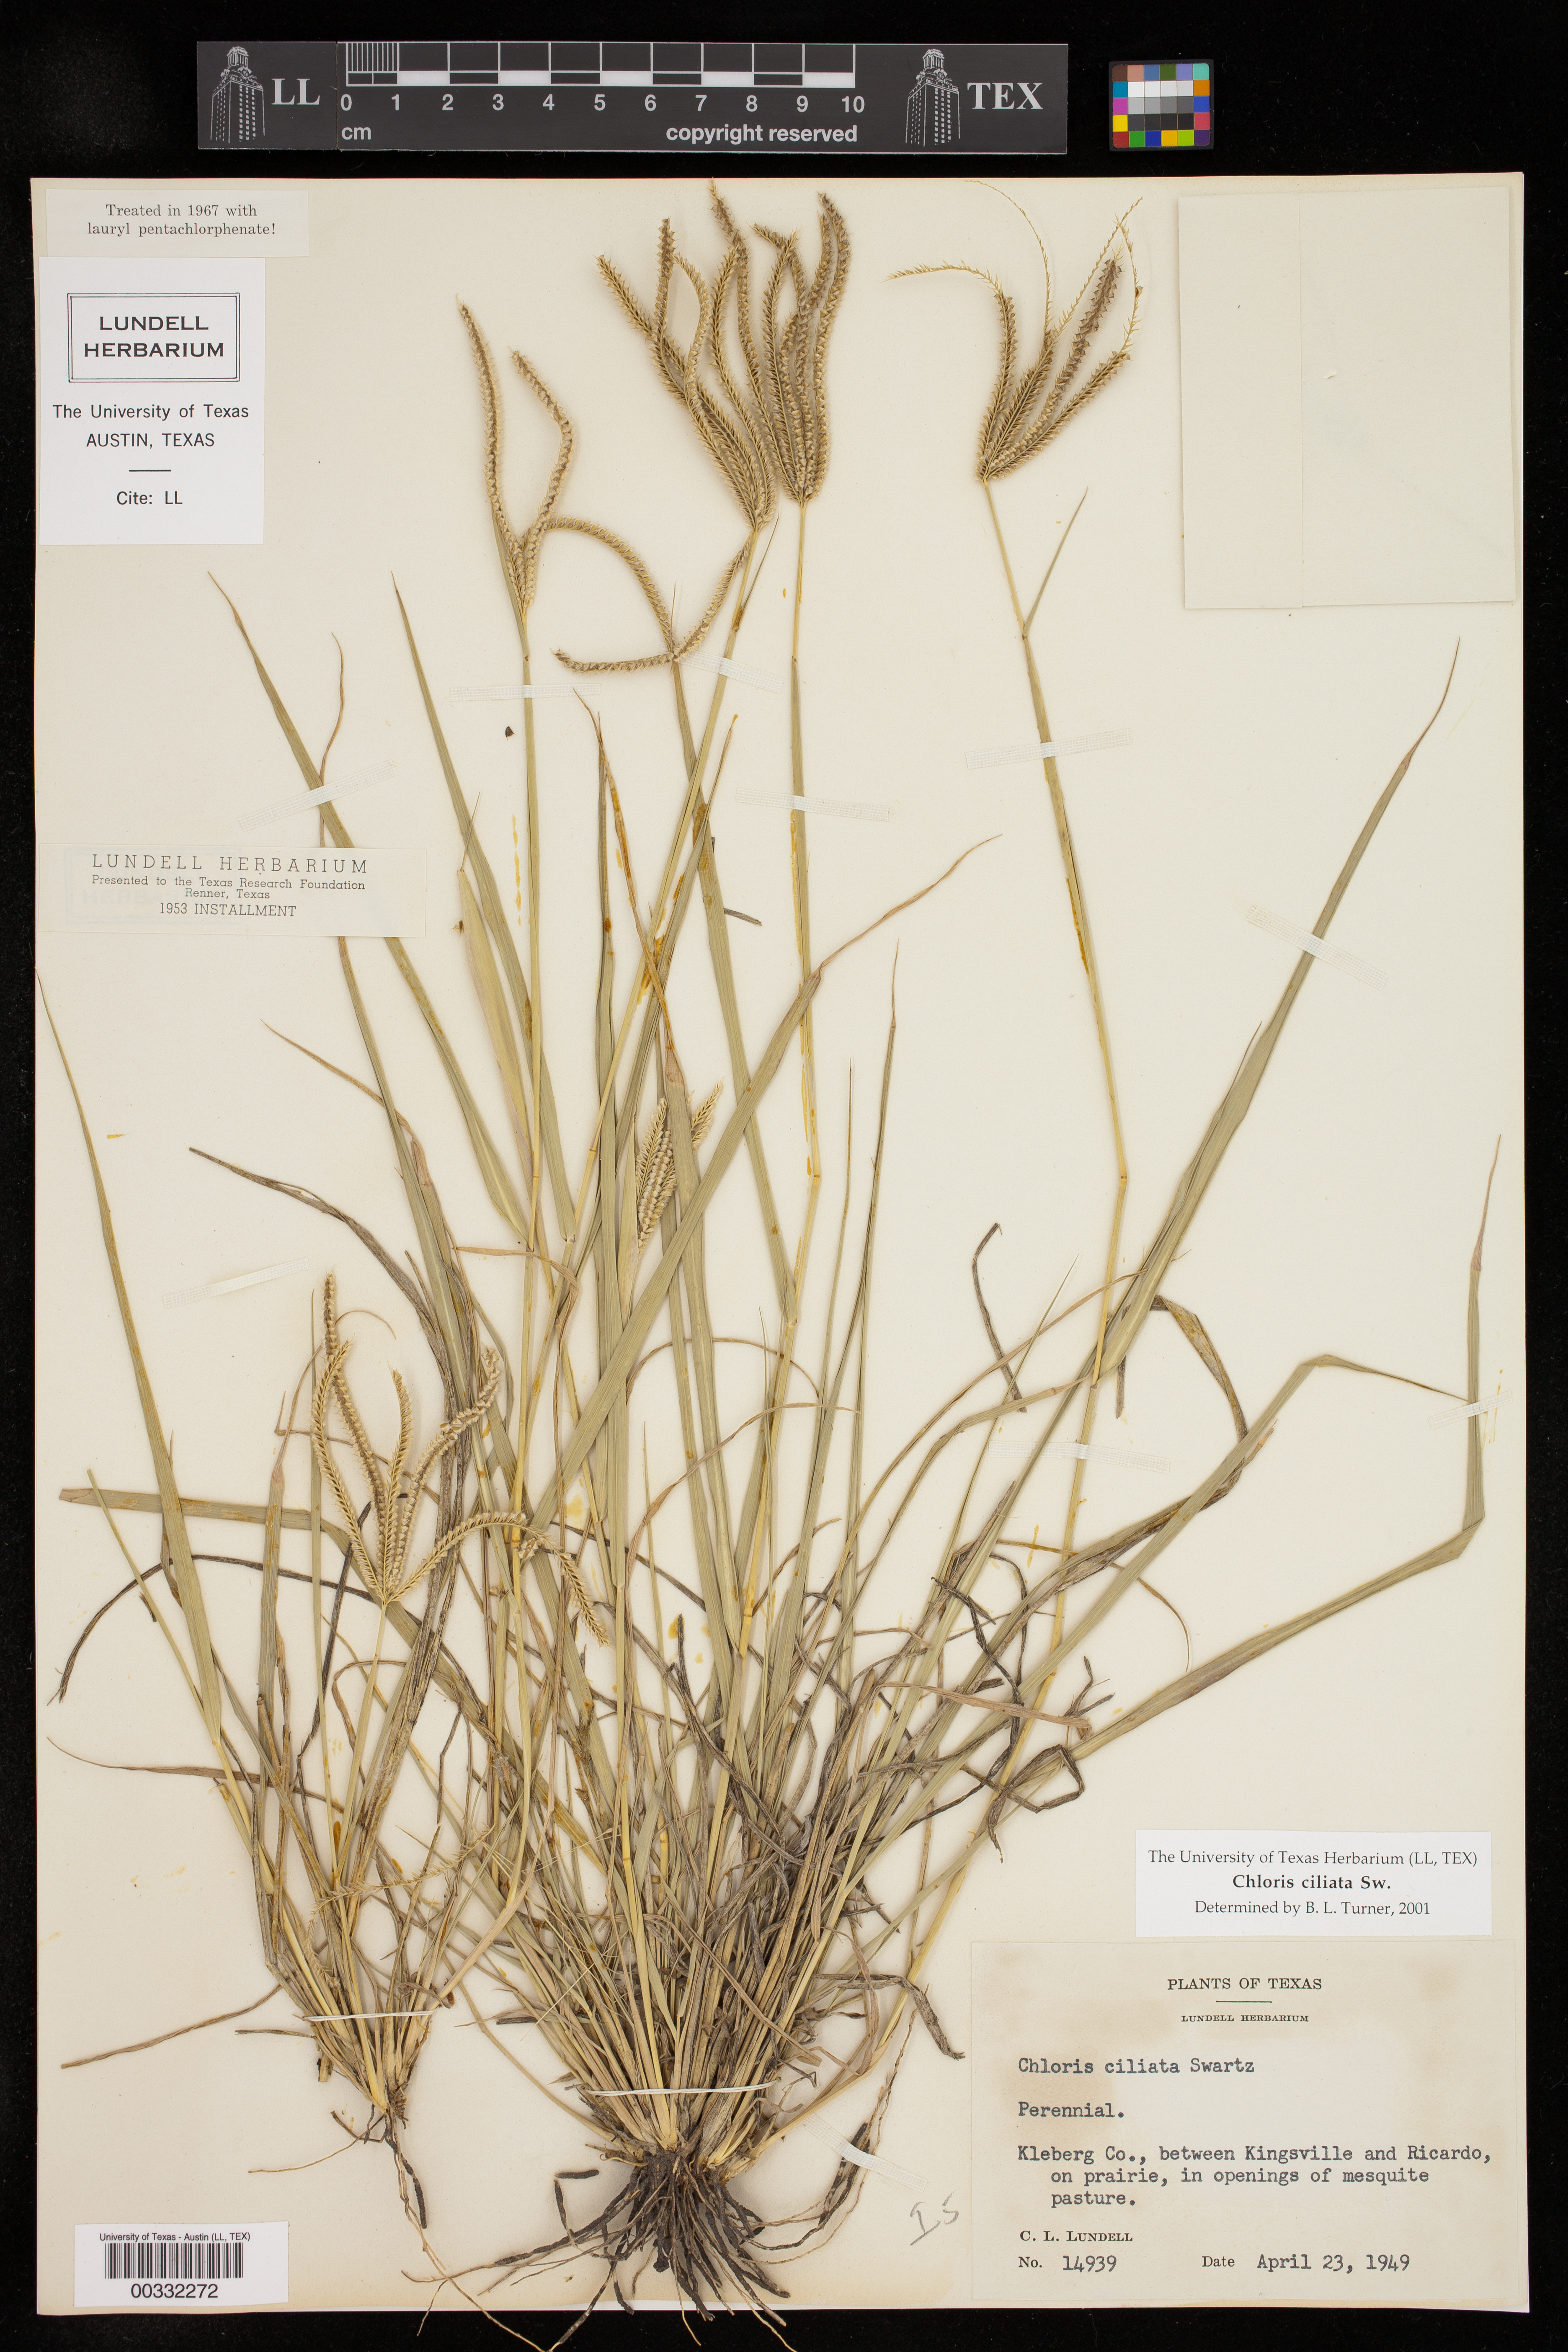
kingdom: Plantae
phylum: Tracheophyta
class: Liliopsida
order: Poales
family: Poaceae
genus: Stapfochloa
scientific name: Stapfochloa ciliata
